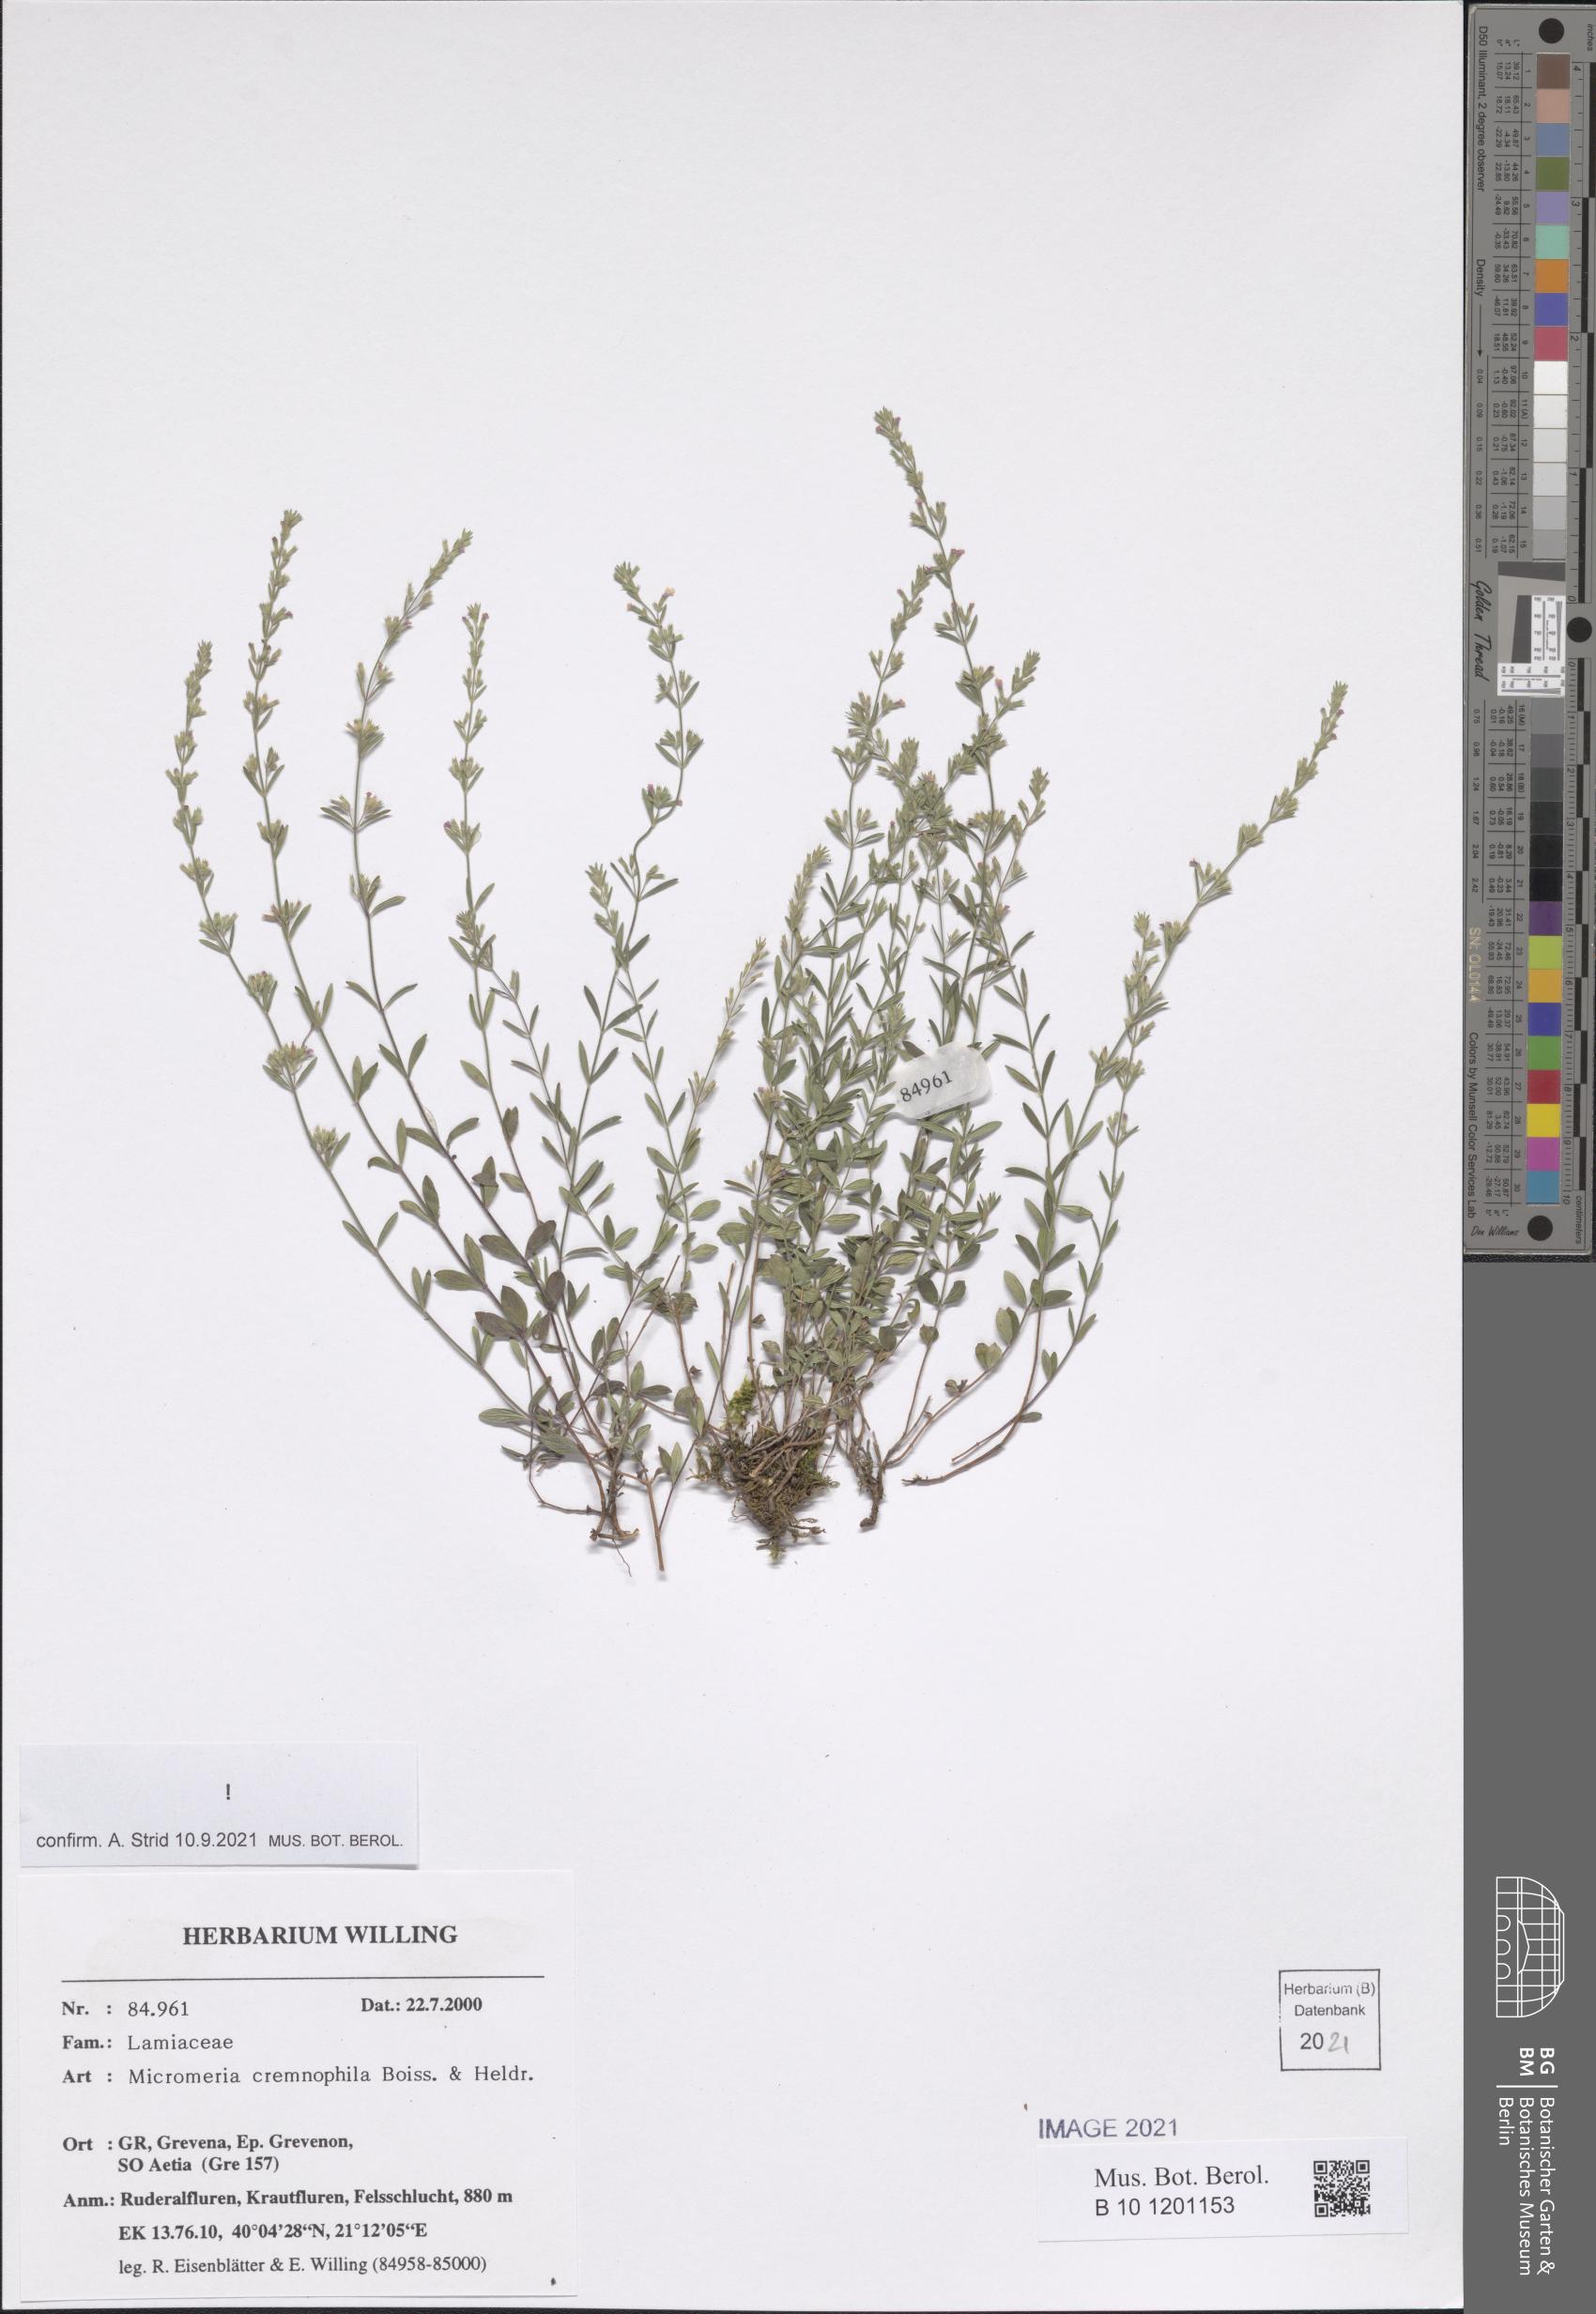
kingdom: Plantae
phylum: Tracheophyta
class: Magnoliopsida
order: Lamiales
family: Lamiaceae
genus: Micromeria
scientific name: Micromeria cremnophila
